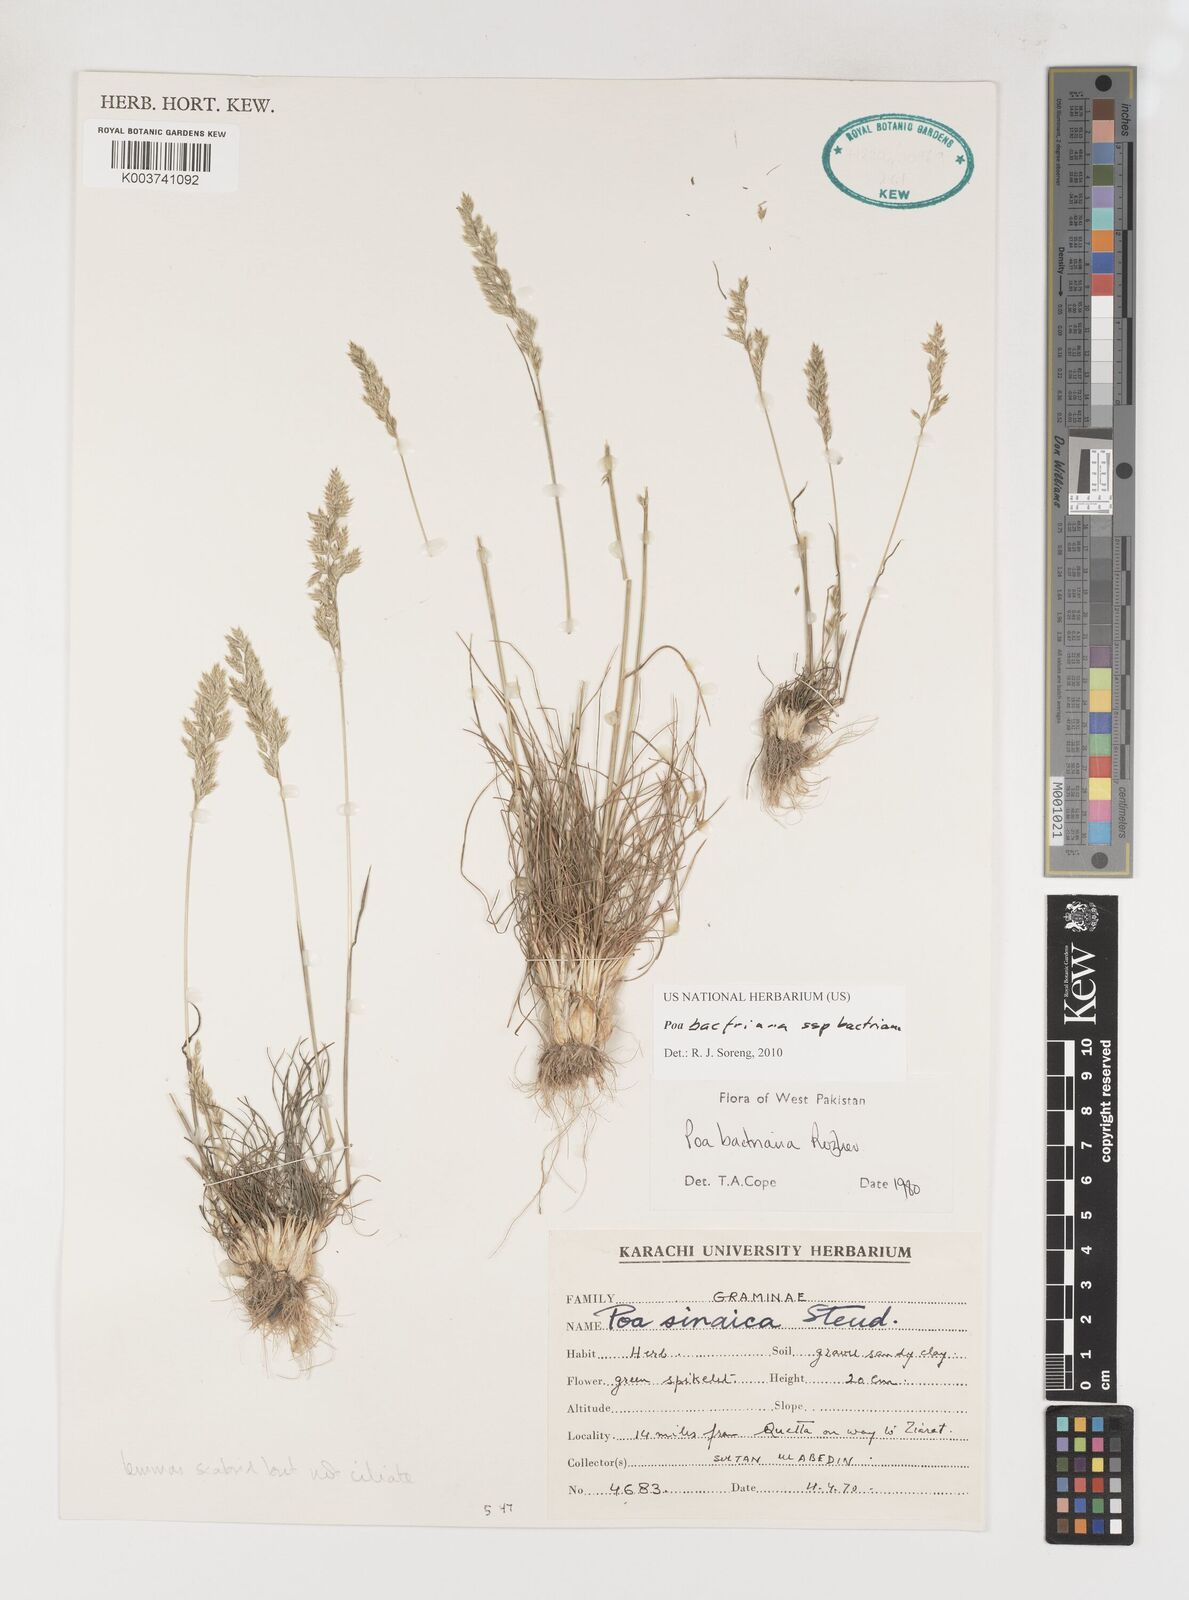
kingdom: Plantae
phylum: Tracheophyta
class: Liliopsida
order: Poales
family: Poaceae
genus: Poa
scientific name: Poa bactriana
